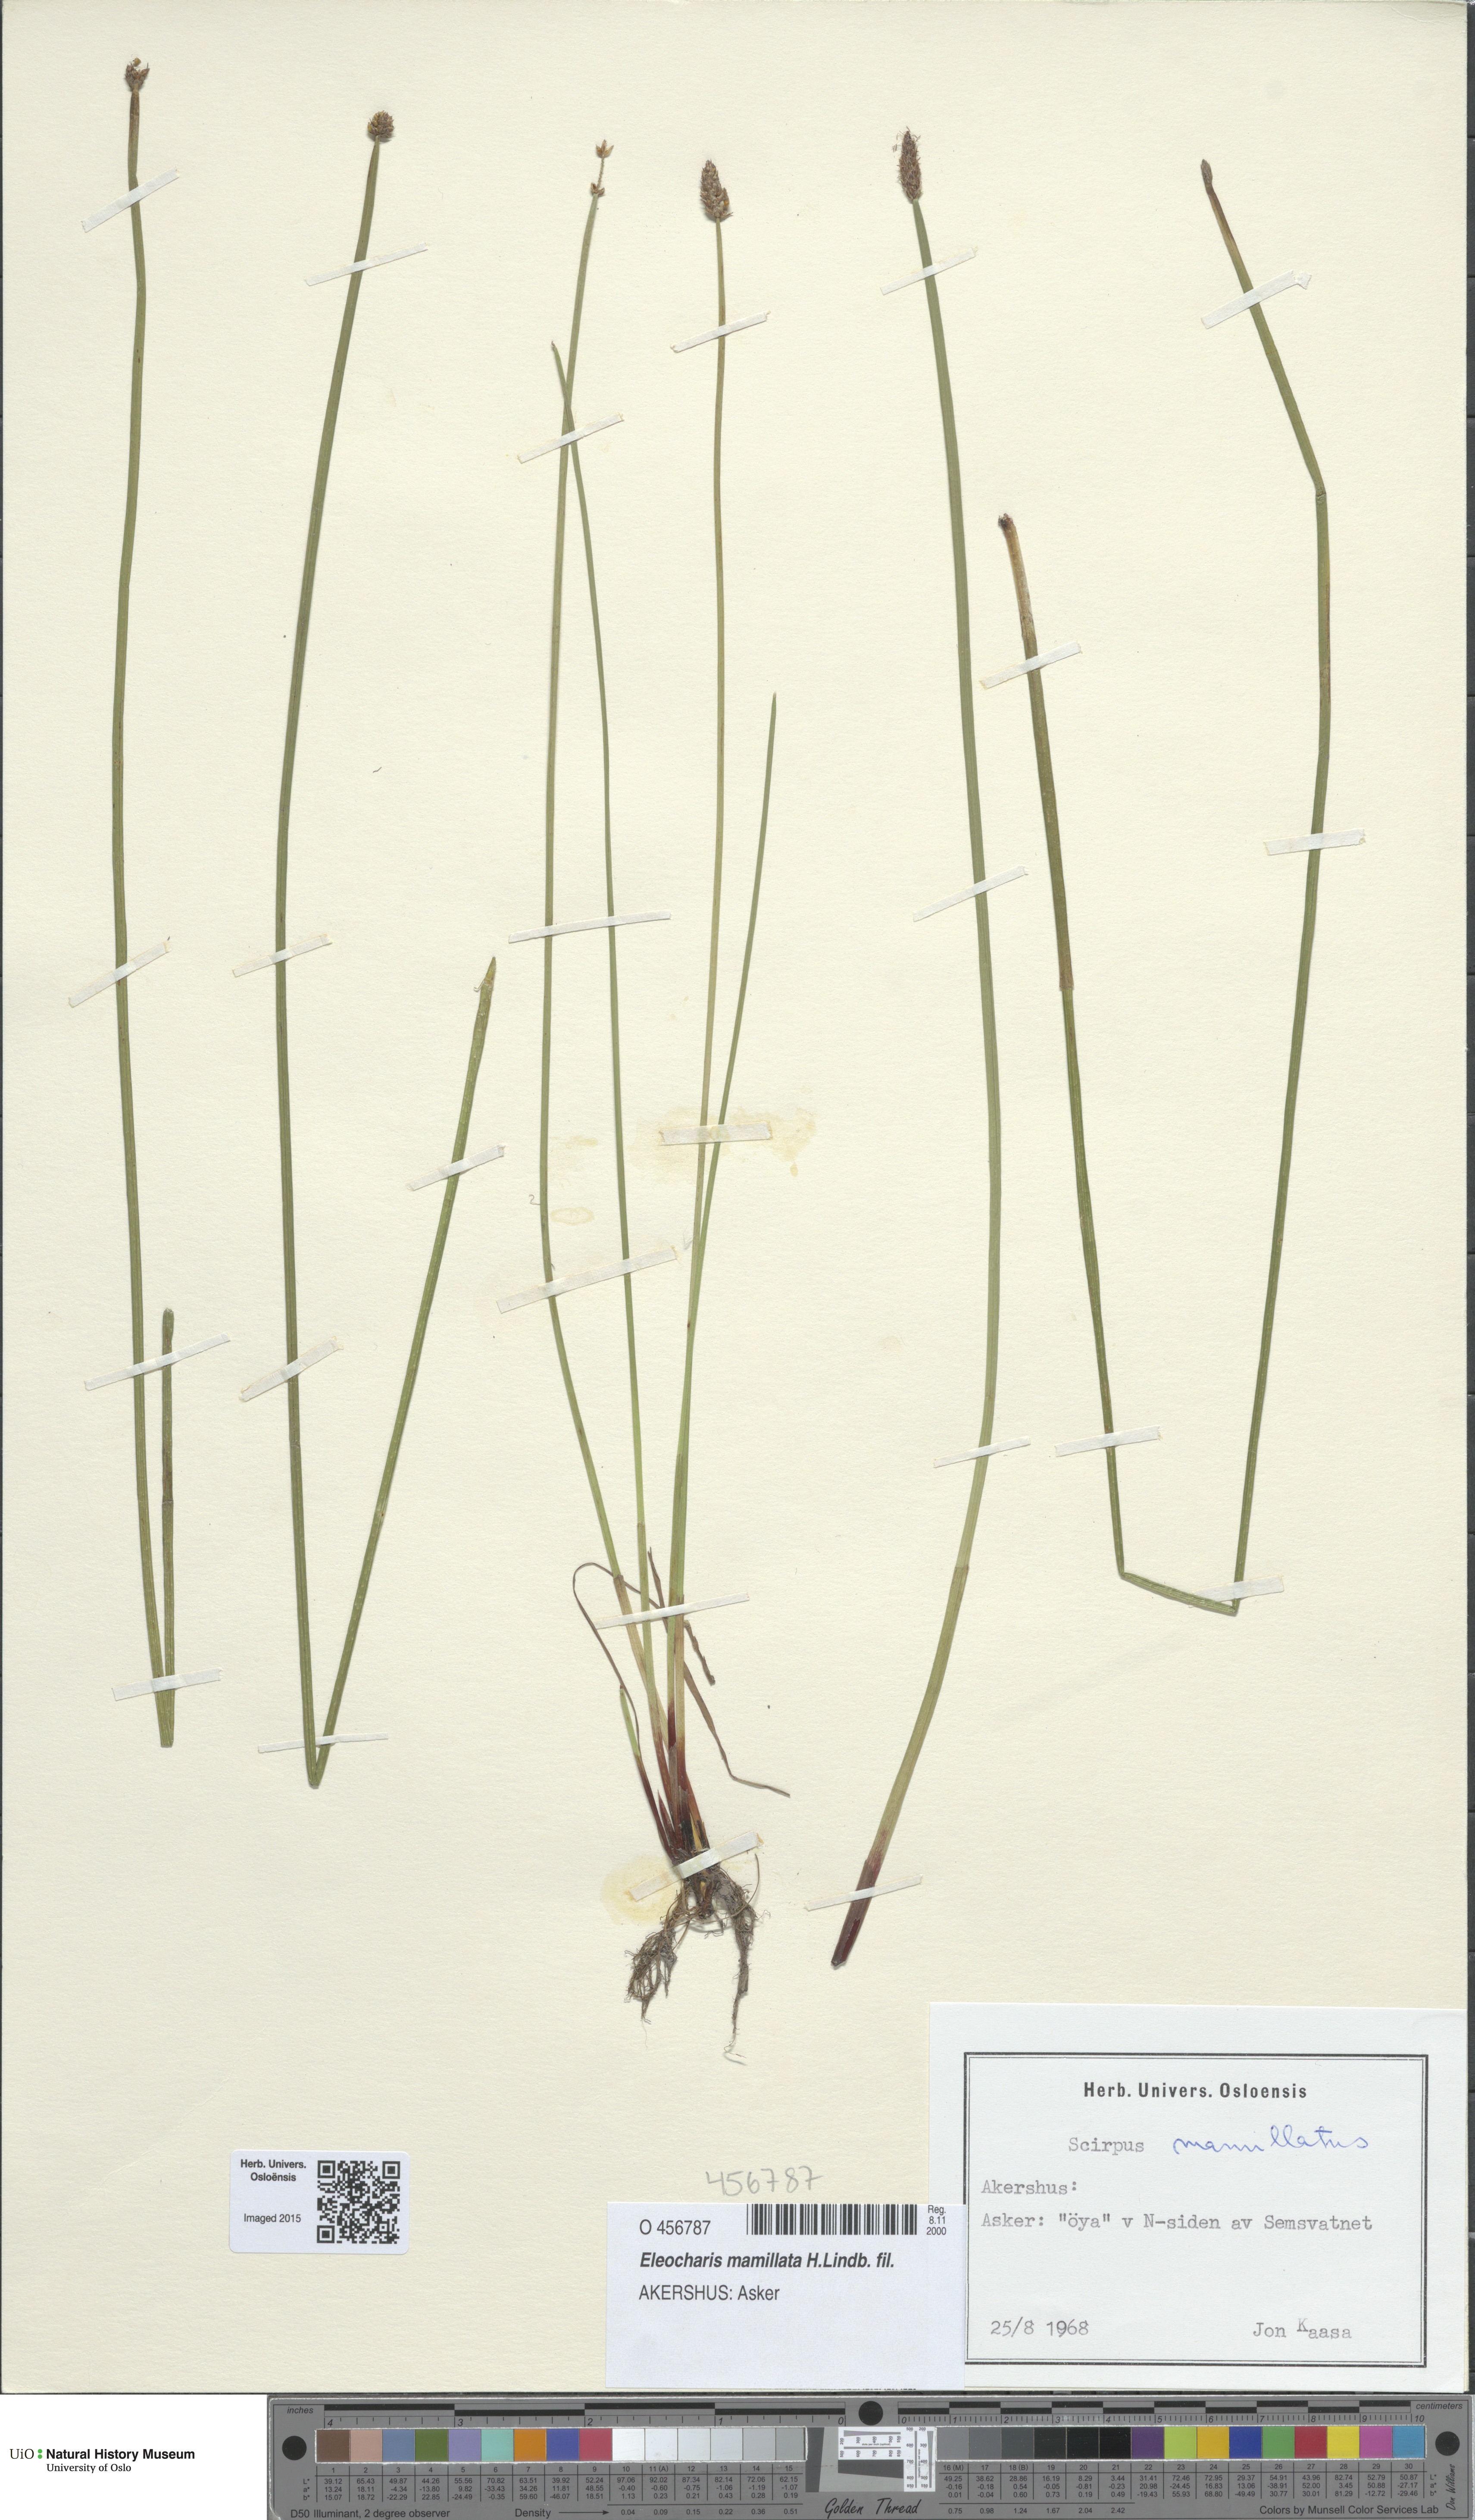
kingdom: Plantae
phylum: Tracheophyta
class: Liliopsida
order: Poales
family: Cyperaceae
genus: Eleocharis
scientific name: Eleocharis mamillata
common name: Northern spike-rush
